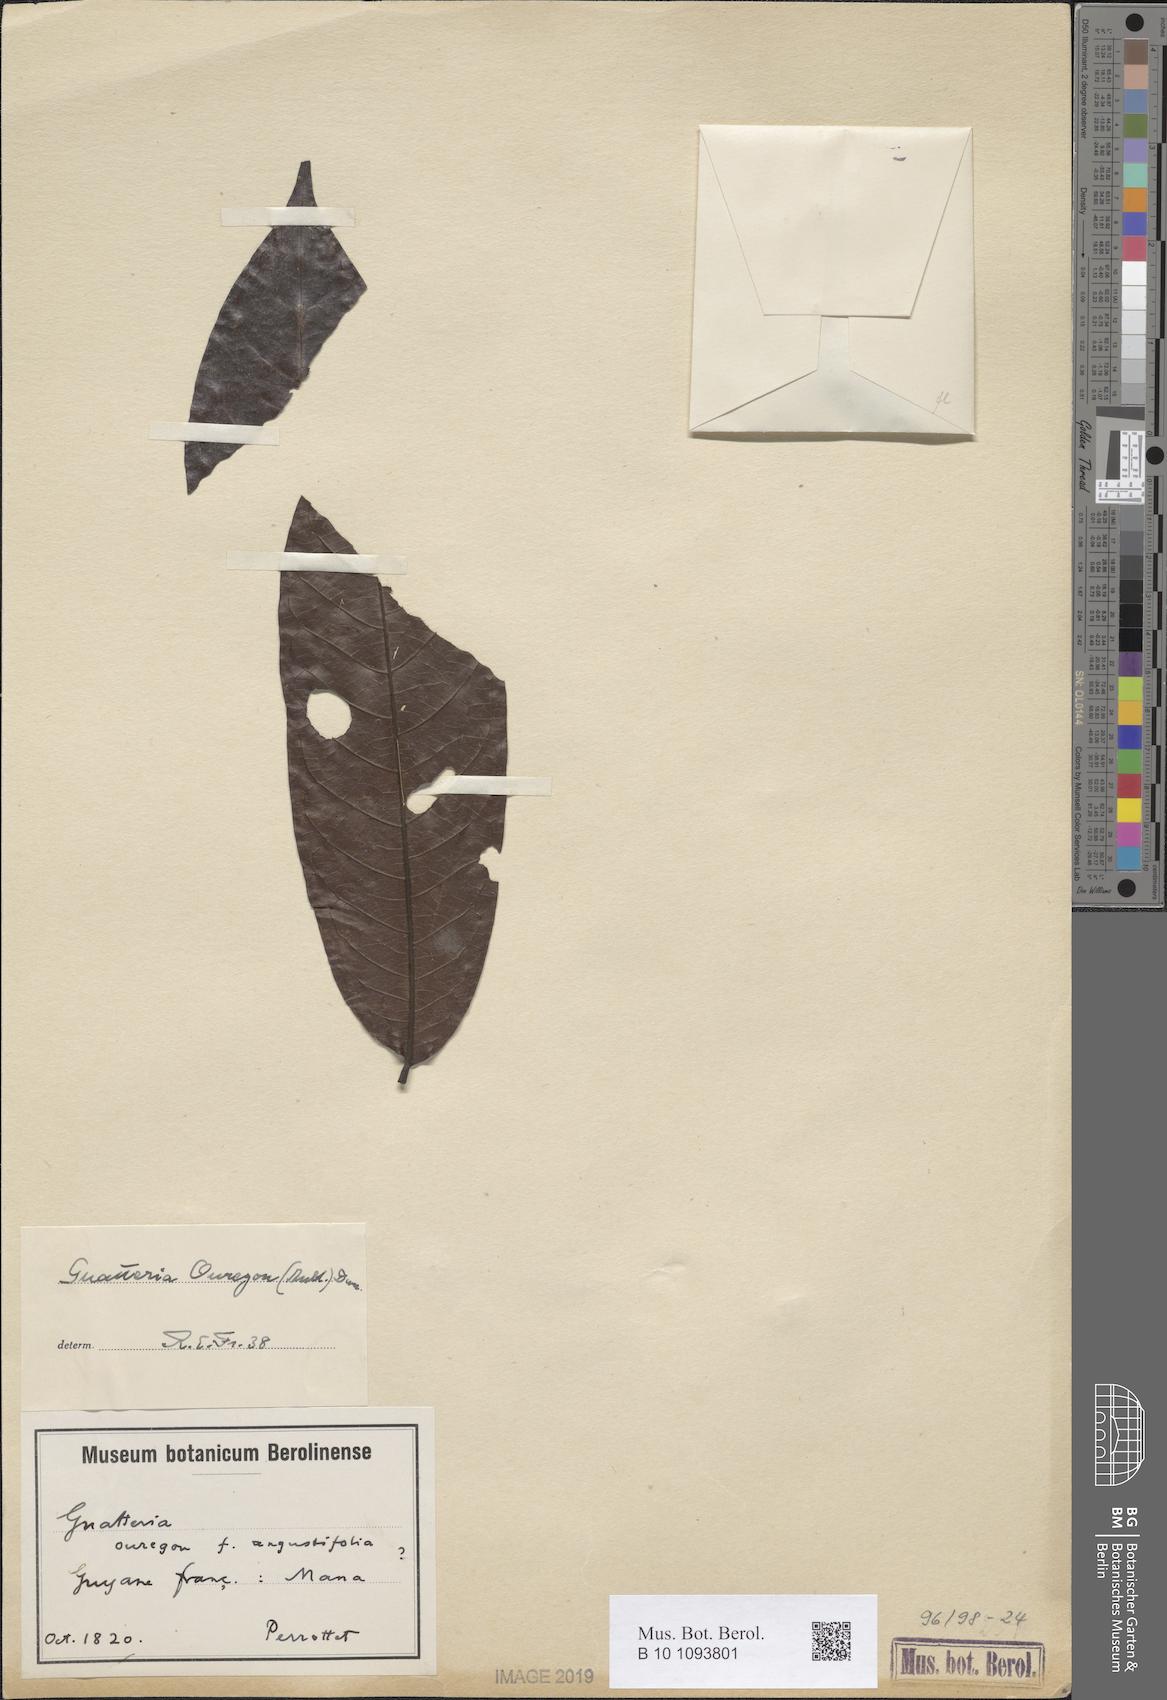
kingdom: Plantae
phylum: Tracheophyta
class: Magnoliopsida
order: Magnoliales
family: Annonaceae
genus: Guatteria
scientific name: Guatteria ouregou
